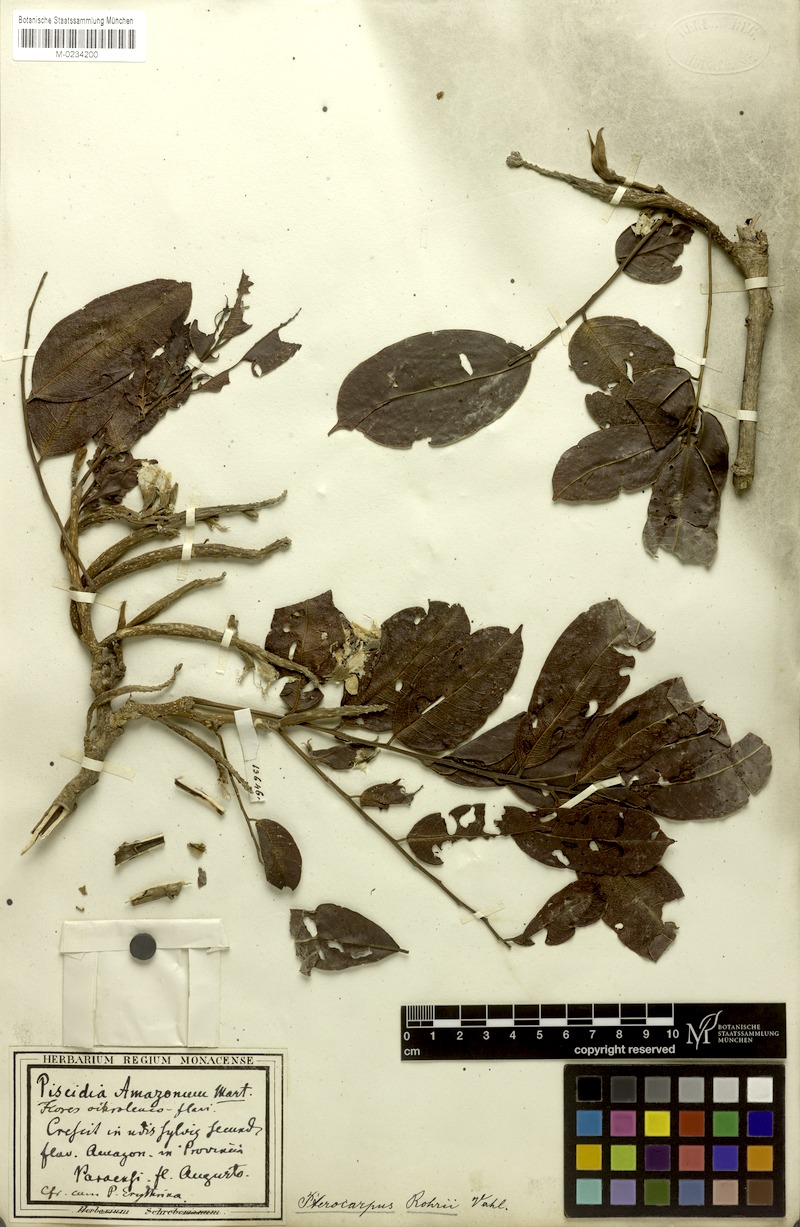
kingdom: Plantae
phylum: Tracheophyta
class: Magnoliopsida
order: Fabales
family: Fabaceae
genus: Pterocarpus
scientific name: Pterocarpus amazonum
